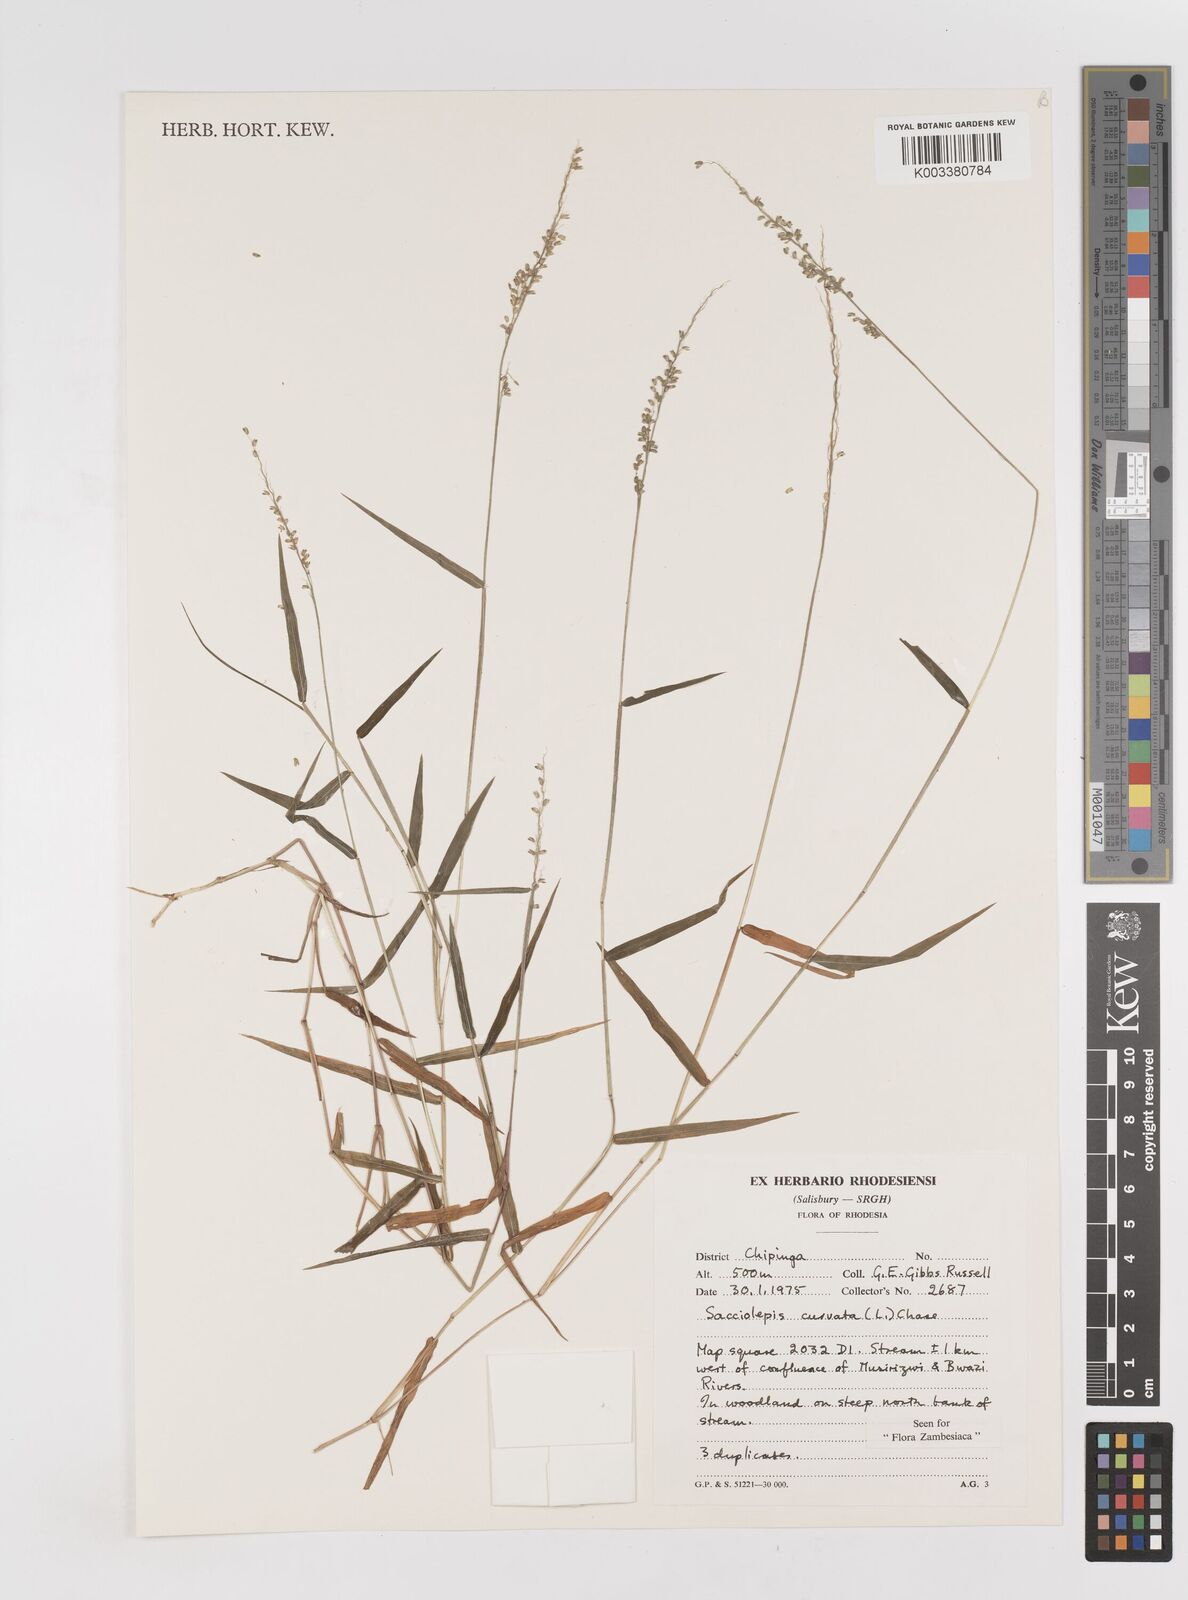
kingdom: Plantae
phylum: Tracheophyta
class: Liliopsida
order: Poales
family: Poaceae
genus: Sacciolepis
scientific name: Sacciolepis curvata
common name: Forest hood grass
